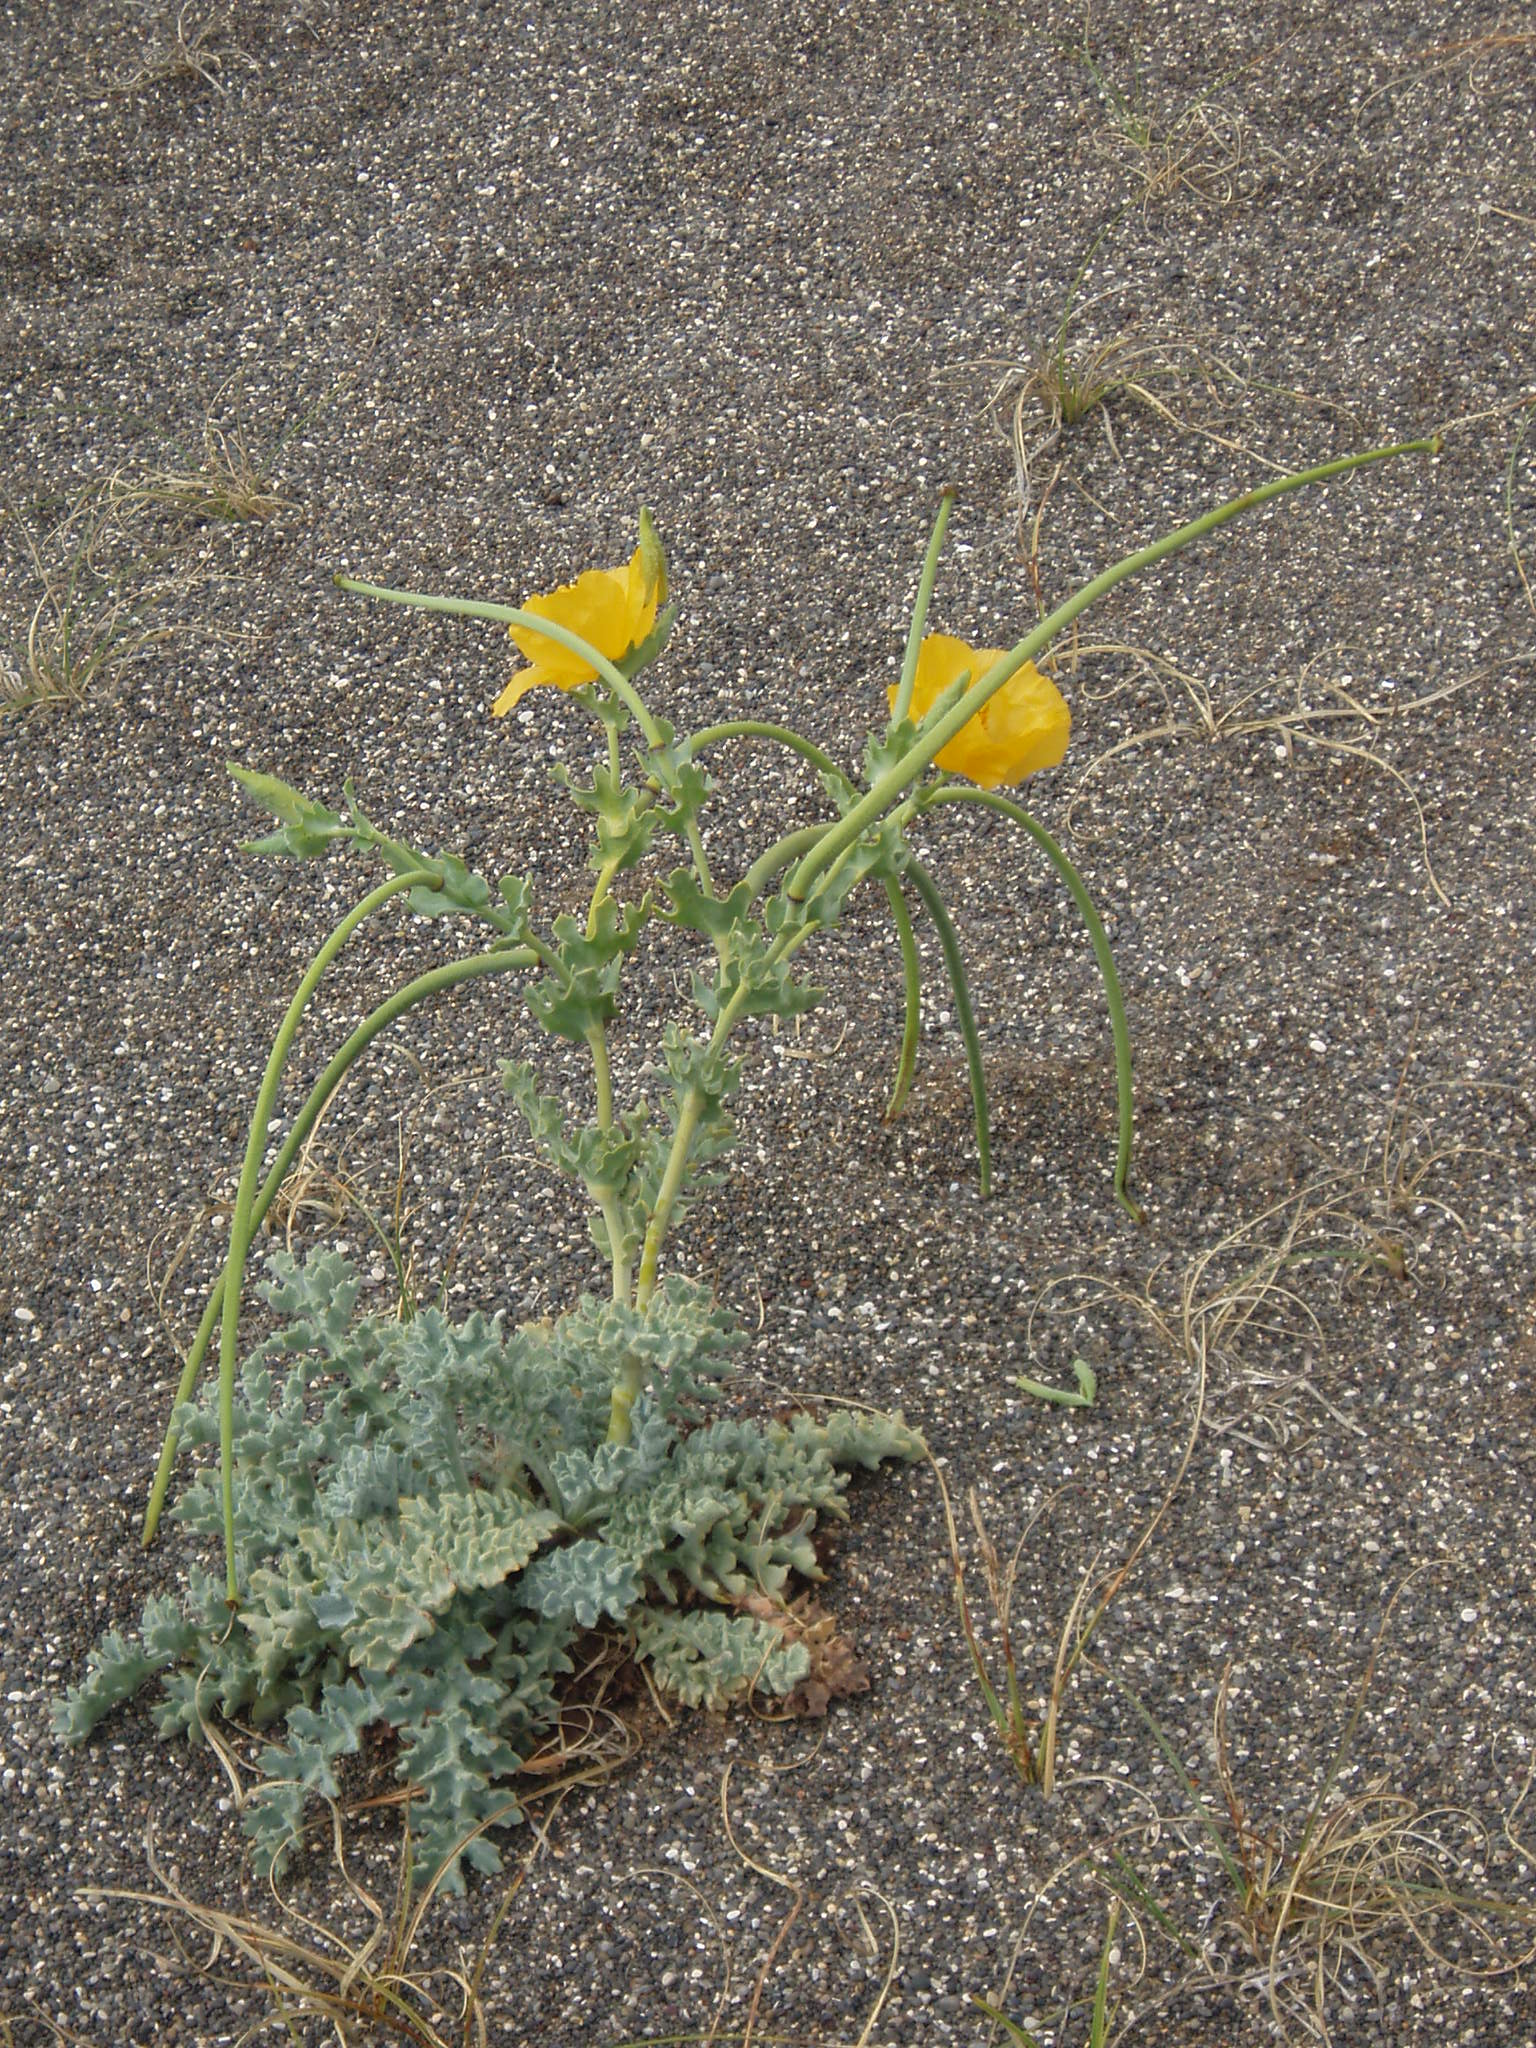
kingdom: Plantae
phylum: Tracheophyta
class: Magnoliopsida
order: Ranunculales
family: Papaveraceae
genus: Glaucium
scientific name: Glaucium flavum
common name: Yellow horned-poppy
